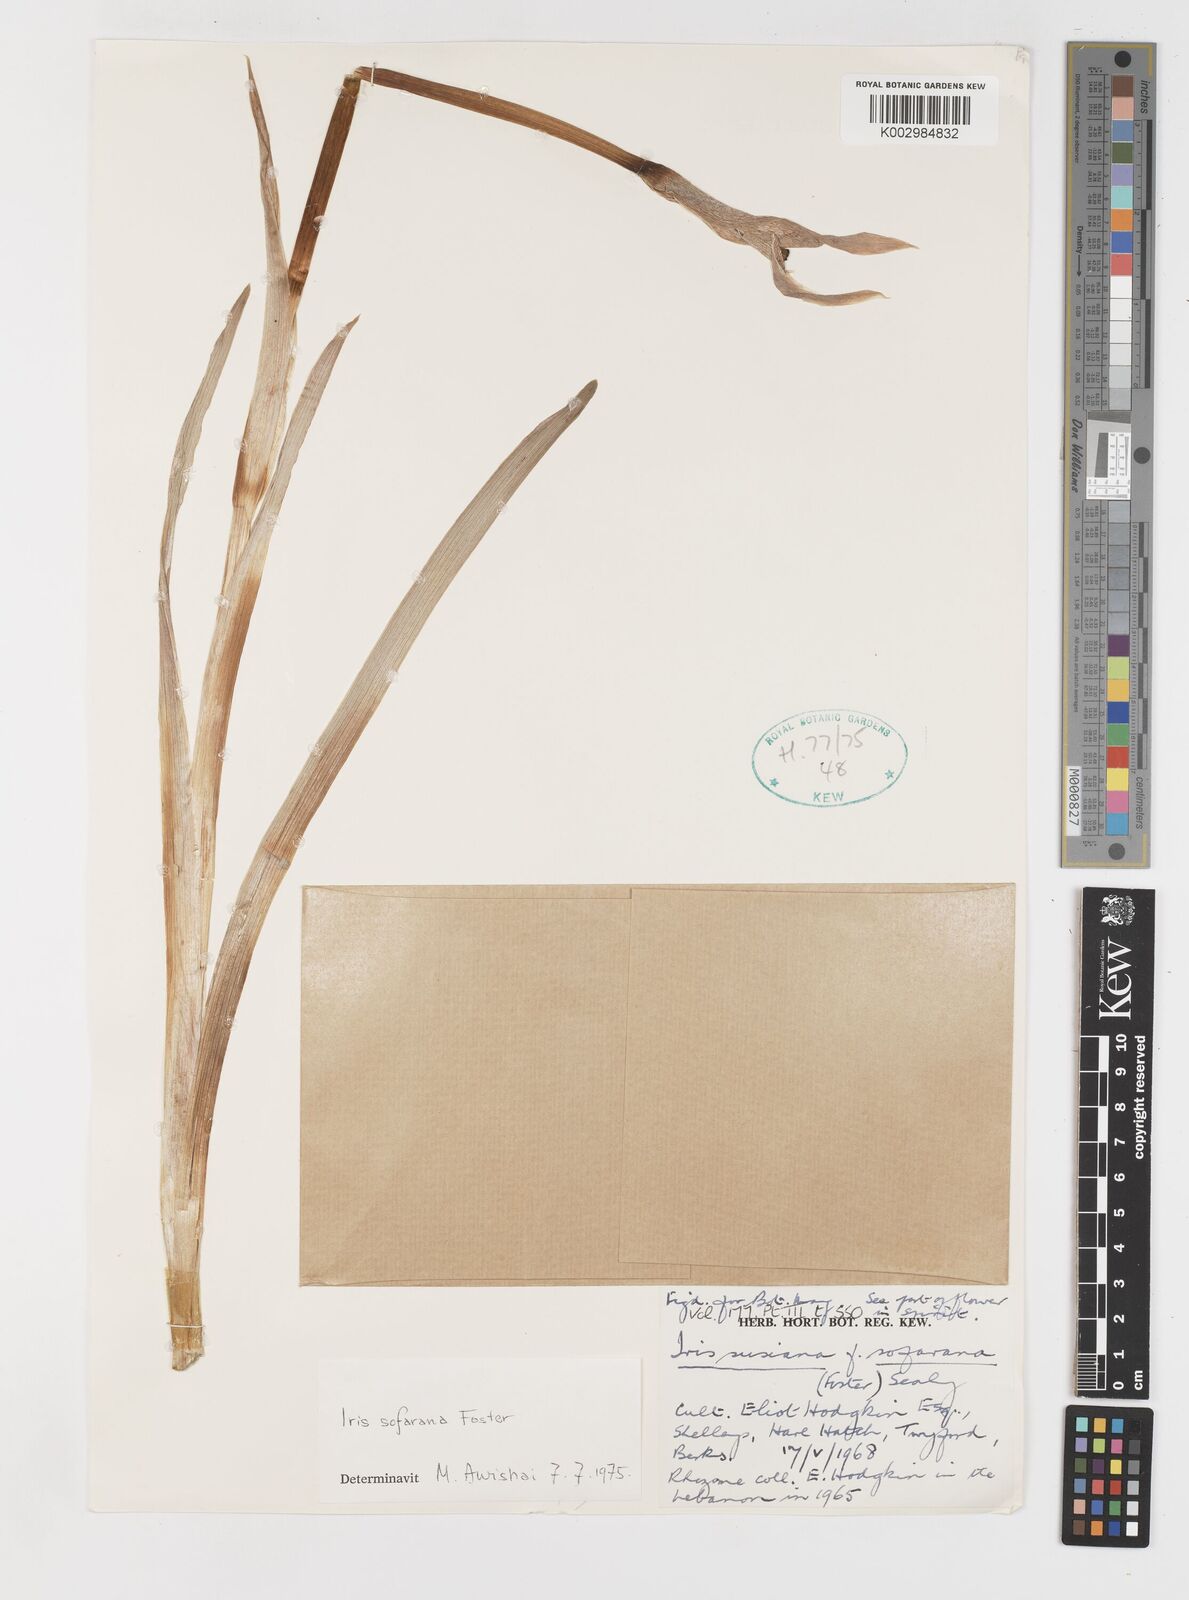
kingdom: Plantae
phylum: Tracheophyta
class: Liliopsida
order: Asparagales
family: Iridaceae
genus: Iris
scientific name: Iris susiana
